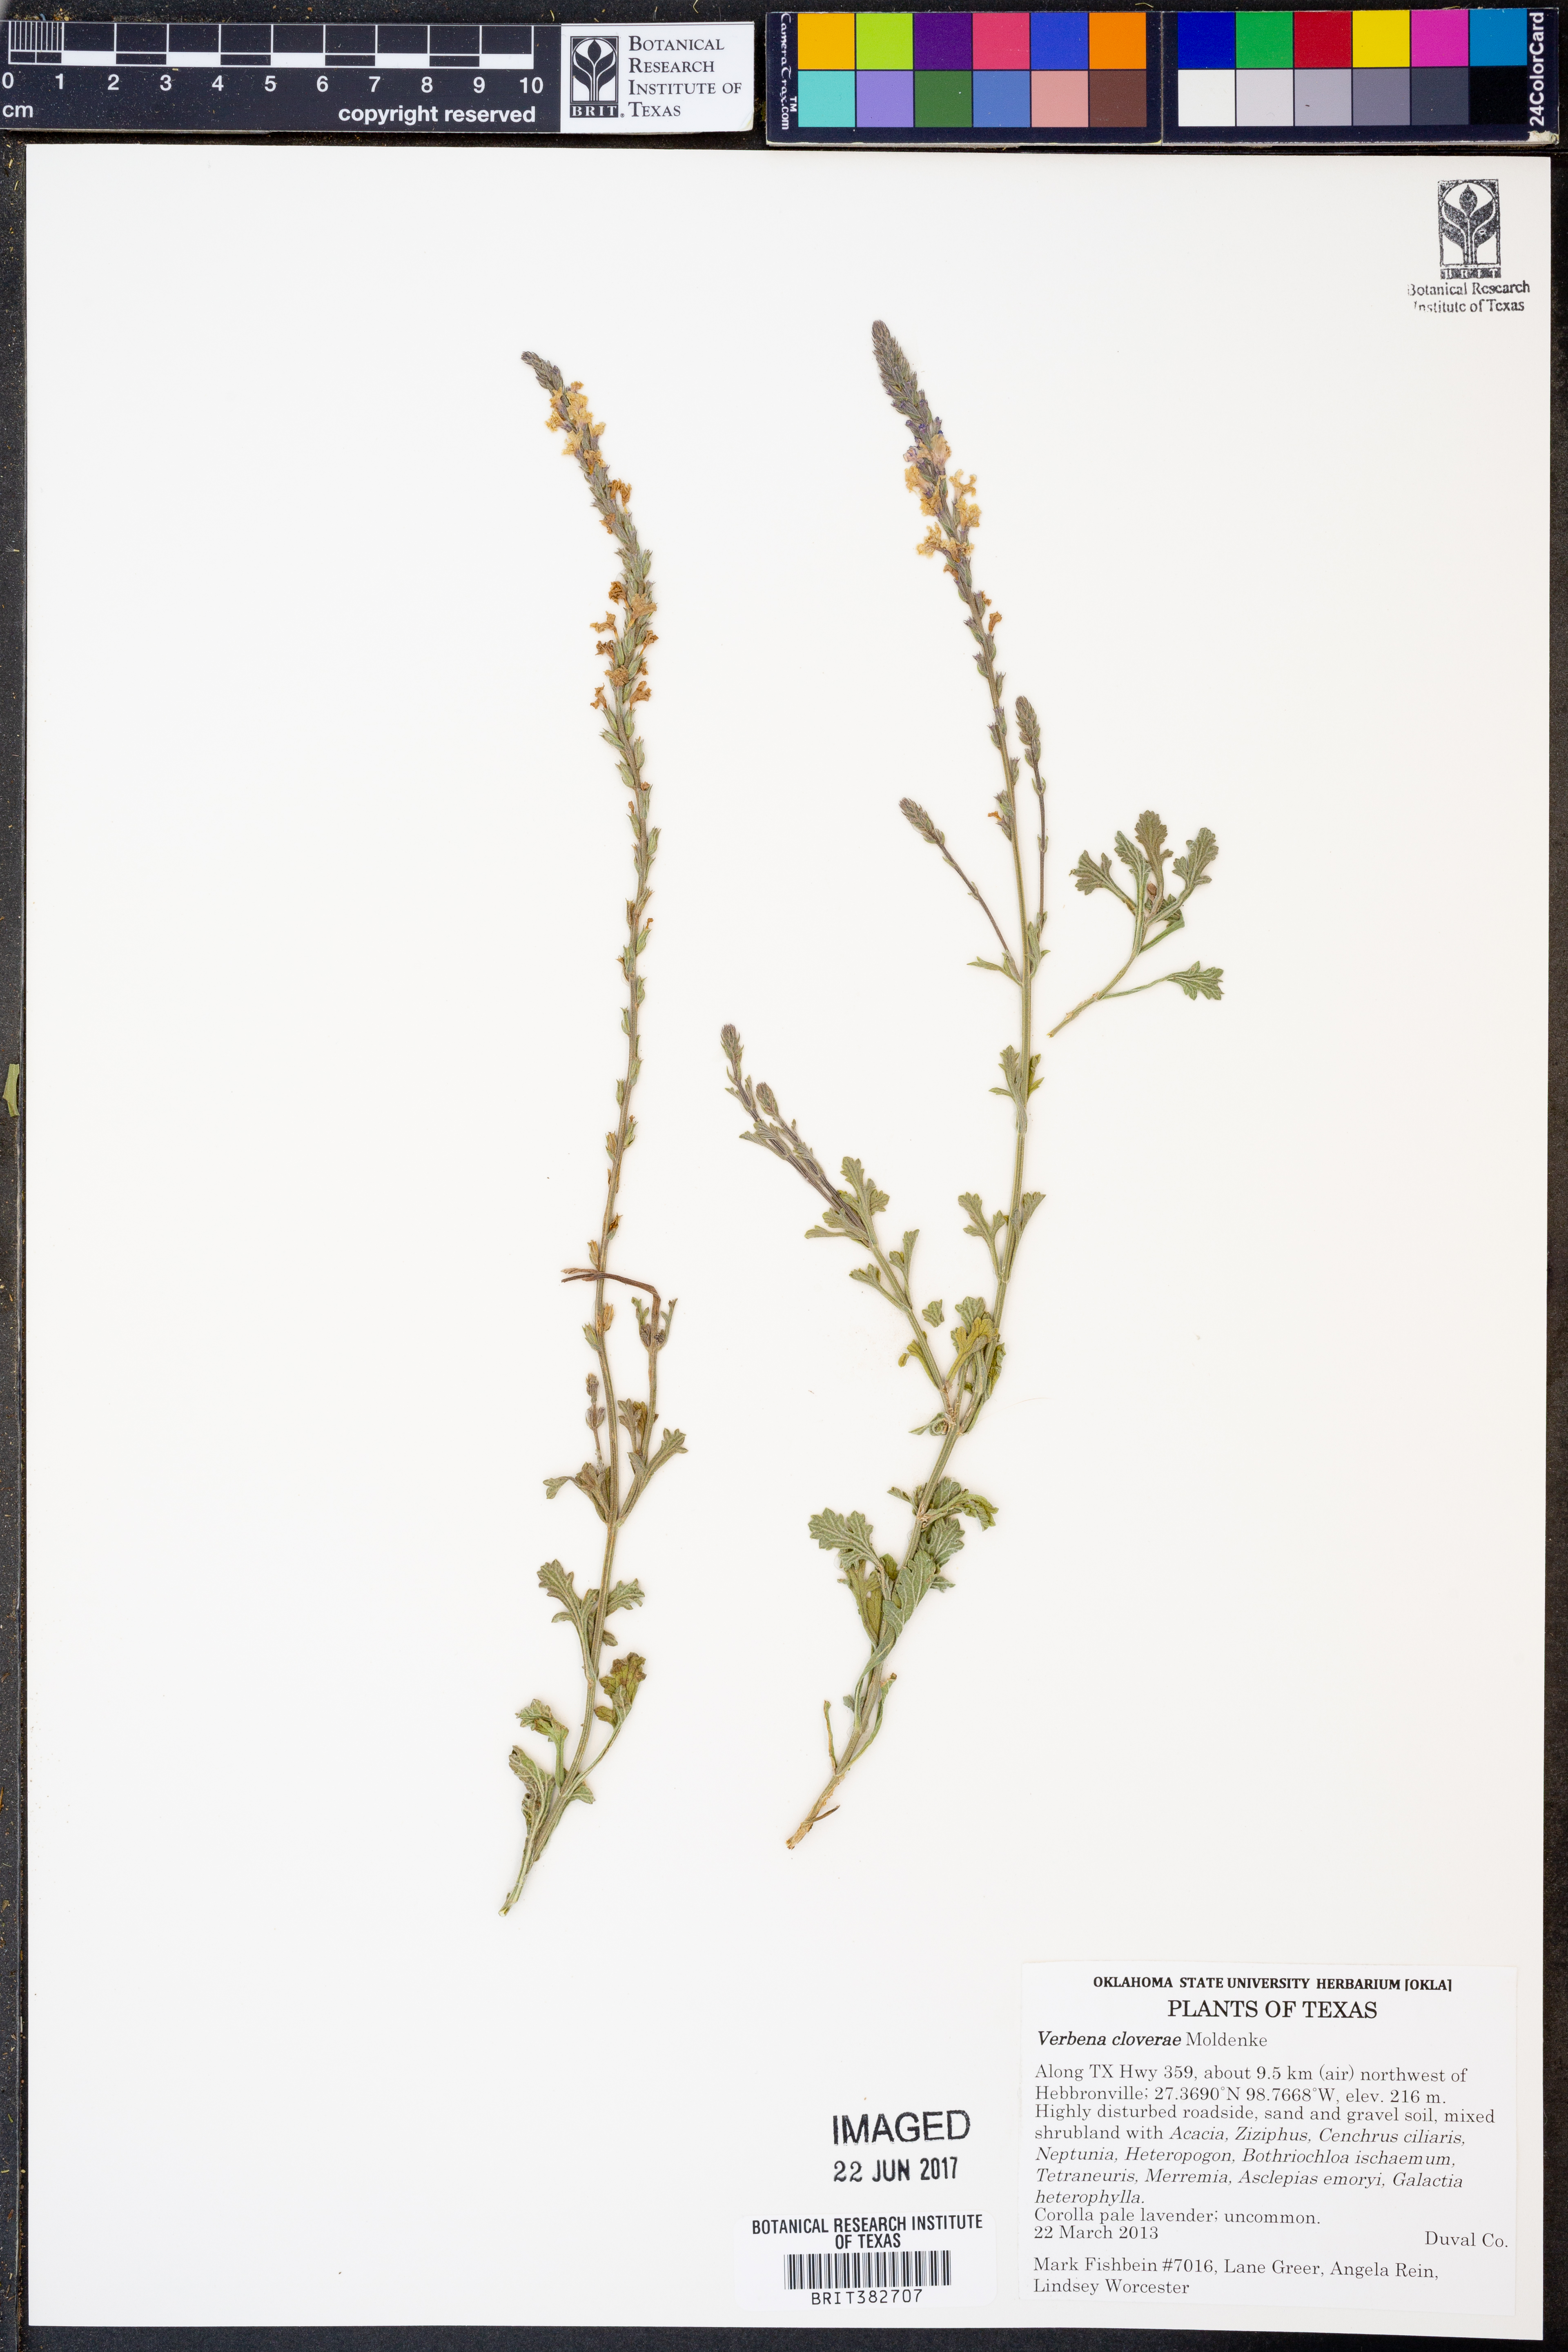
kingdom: Plantae
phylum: Tracheophyta
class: Magnoliopsida
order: Lamiales
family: Verbenaceae
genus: Verbena
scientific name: Verbena cloverae
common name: Clover's vervain
